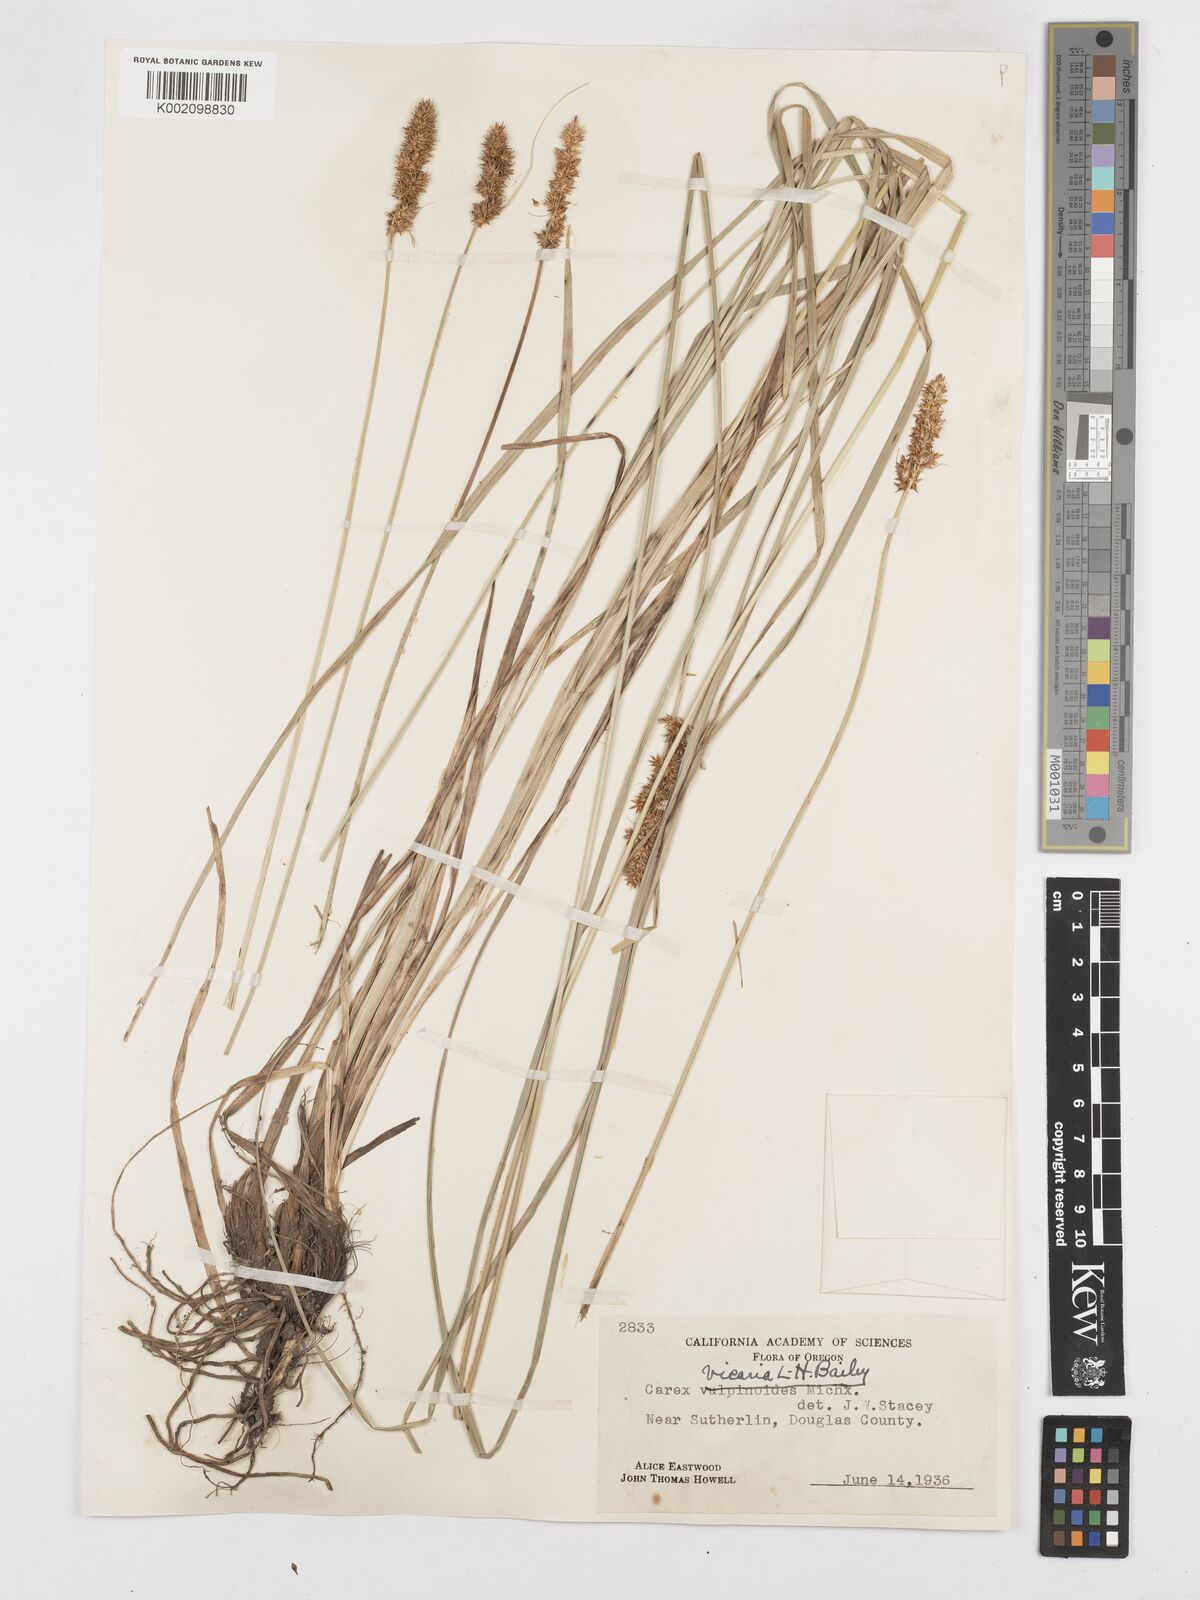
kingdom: Plantae
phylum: Tracheophyta
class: Liliopsida
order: Poales
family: Cyperaceae
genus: Carex
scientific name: Carex densa
